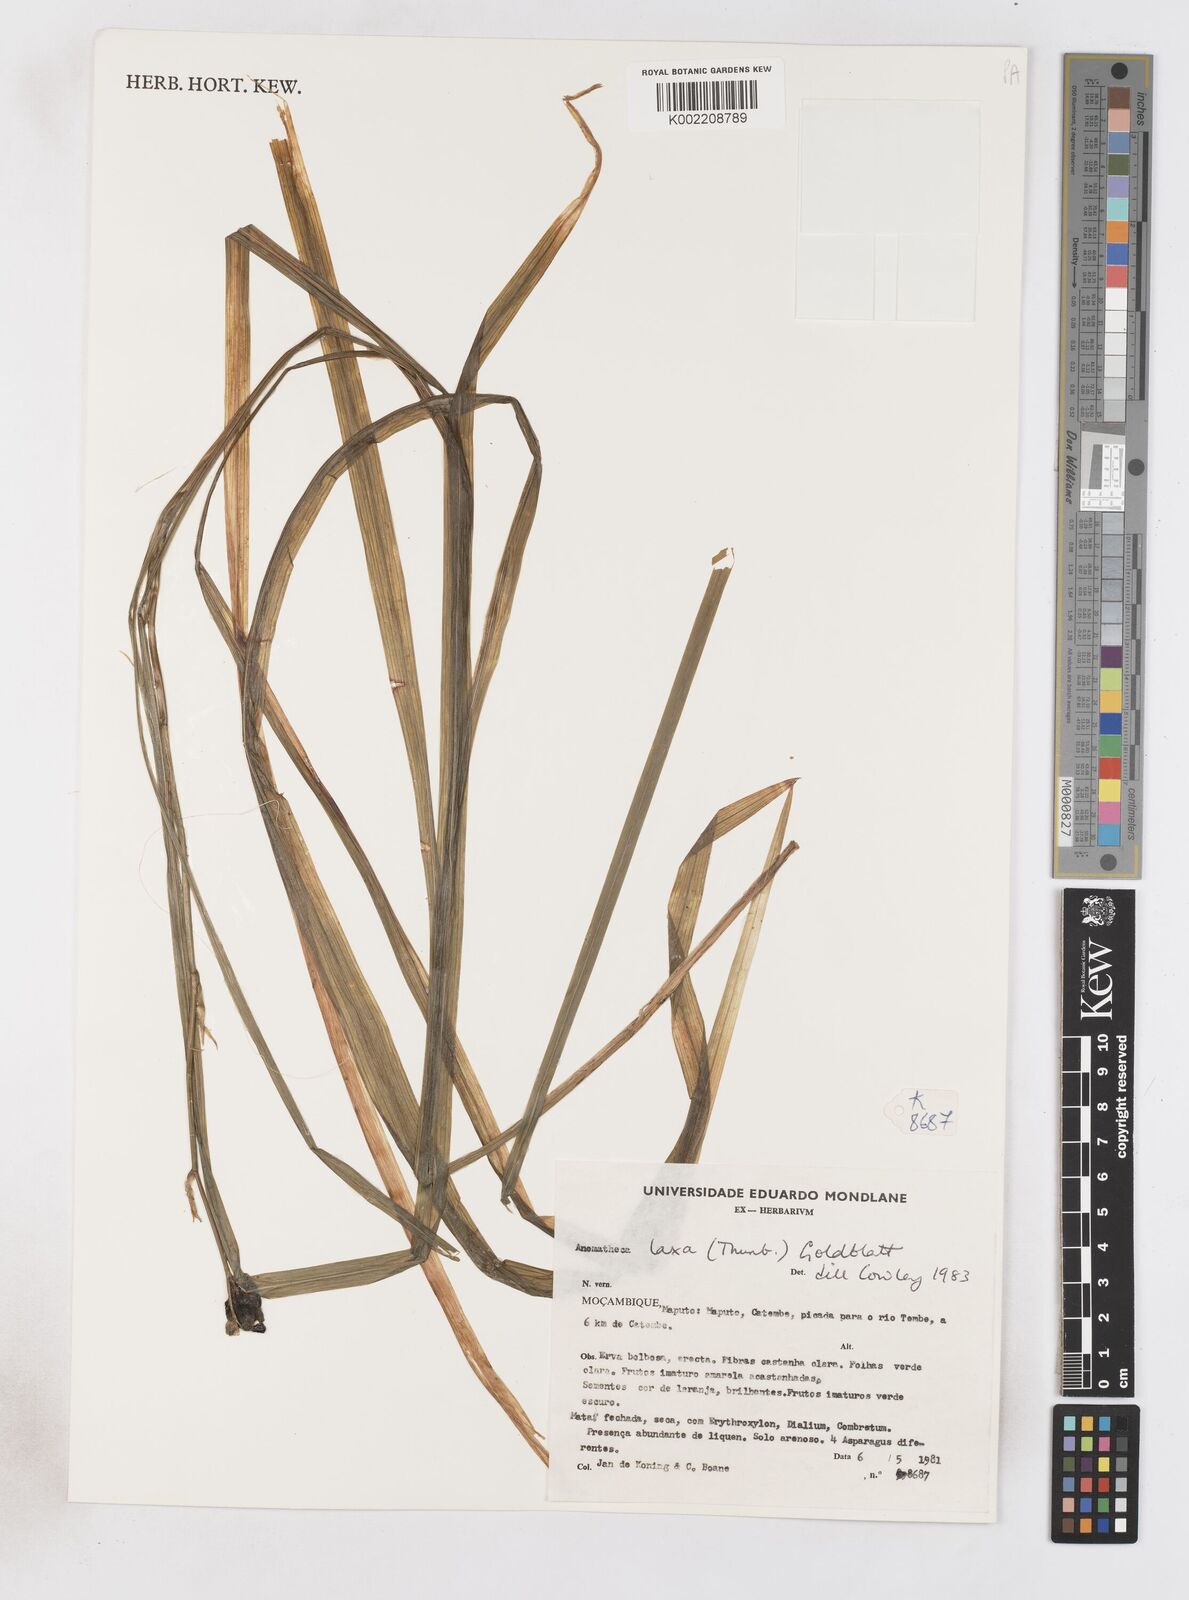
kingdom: Plantae
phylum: Tracheophyta
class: Liliopsida
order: Asparagales
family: Iridaceae
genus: Freesia
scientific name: Freesia laxa
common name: False freesia
